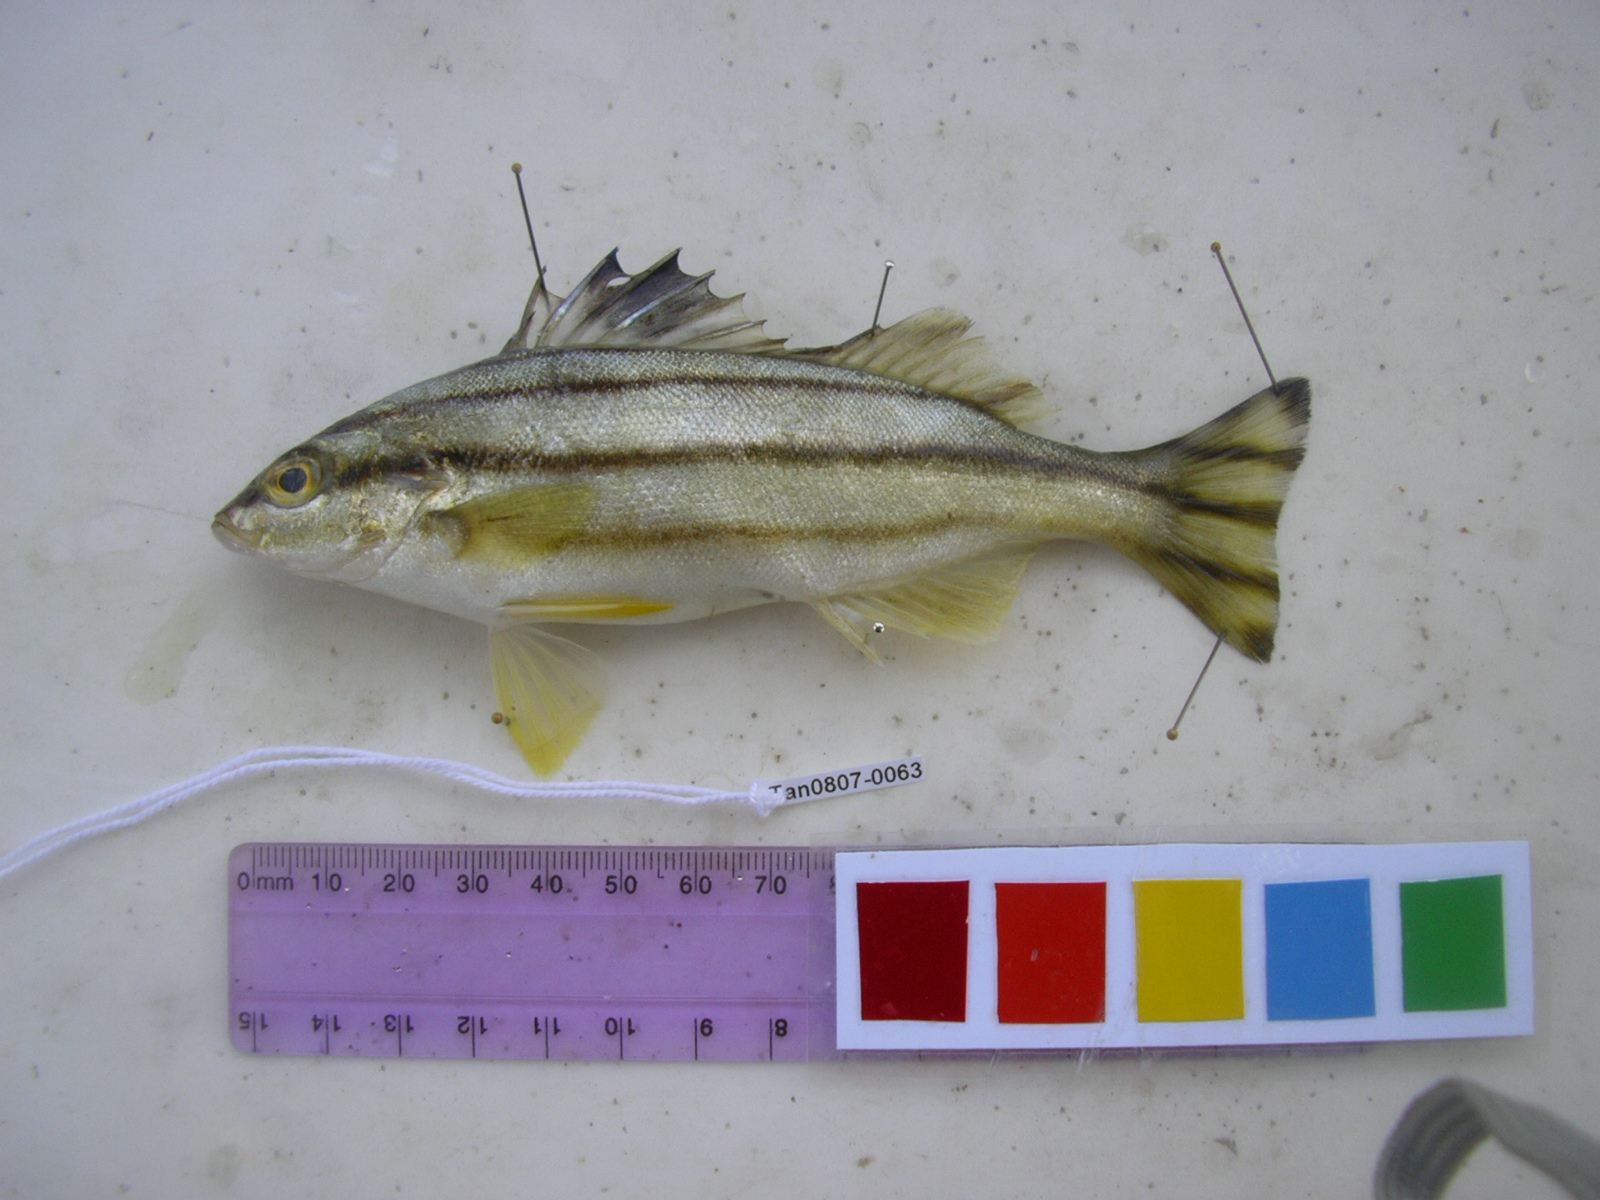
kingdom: Animalia
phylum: Chordata
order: Perciformes
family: Terapontidae
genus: Terapon
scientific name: Terapon theraps
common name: Largescaled therapon
